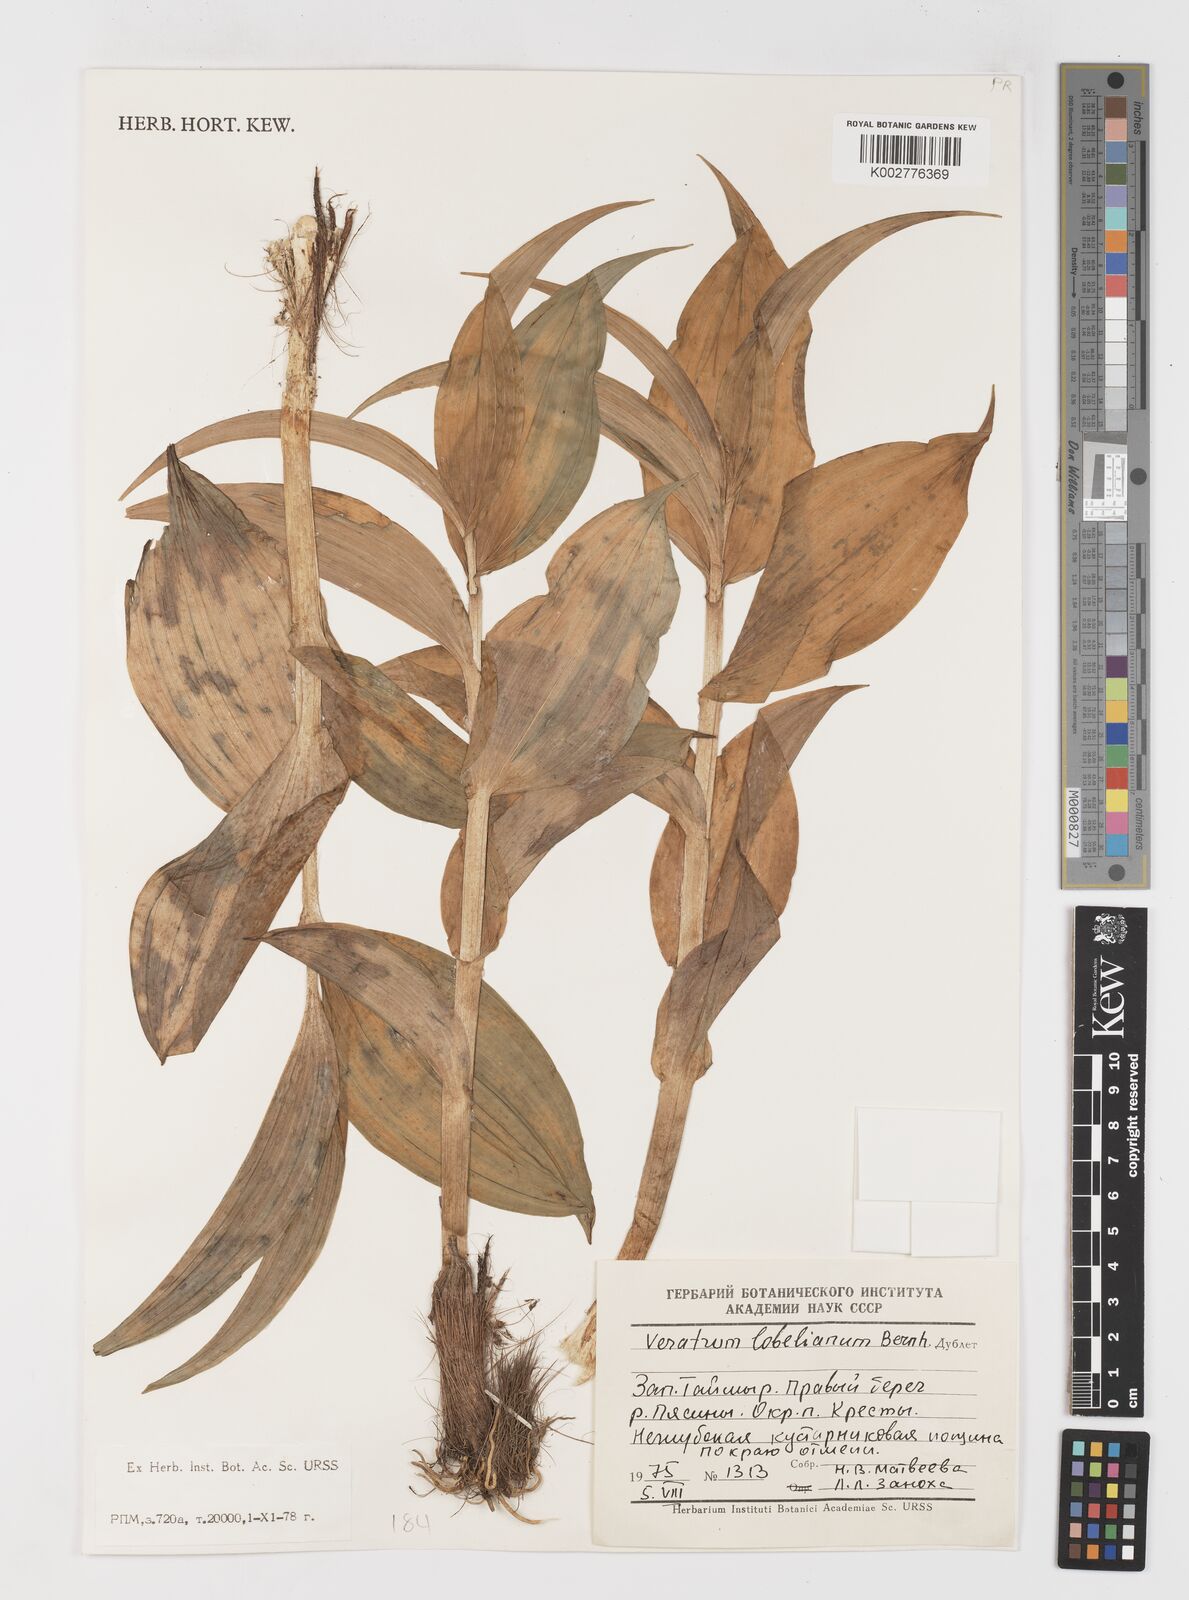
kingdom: Plantae
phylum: Tracheophyta
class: Liliopsida
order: Liliales
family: Melanthiaceae
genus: Veratrum
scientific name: Veratrum lobelianum
